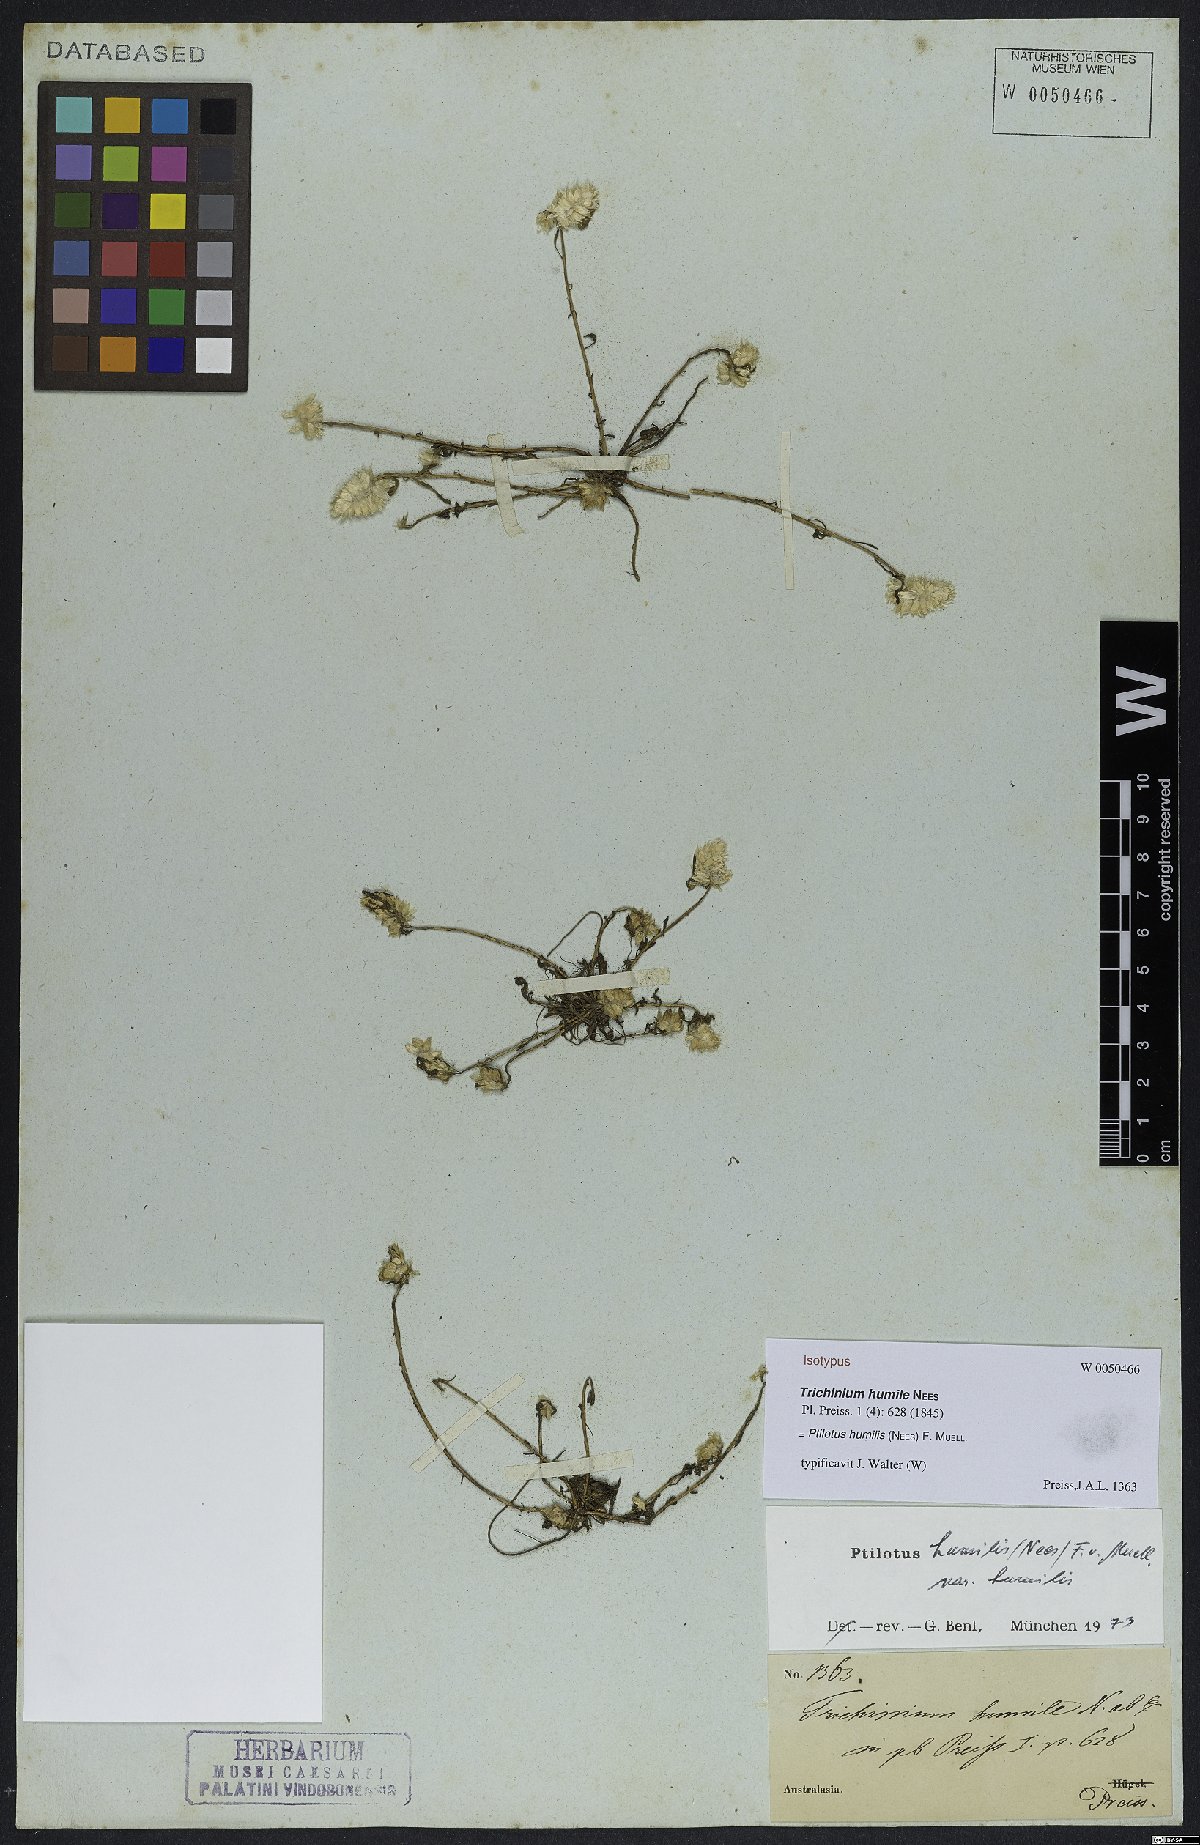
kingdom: Plantae
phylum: Tracheophyta
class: Magnoliopsida
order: Caryophyllales
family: Amaranthaceae
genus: Ptilotus
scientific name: Ptilotus humilis
